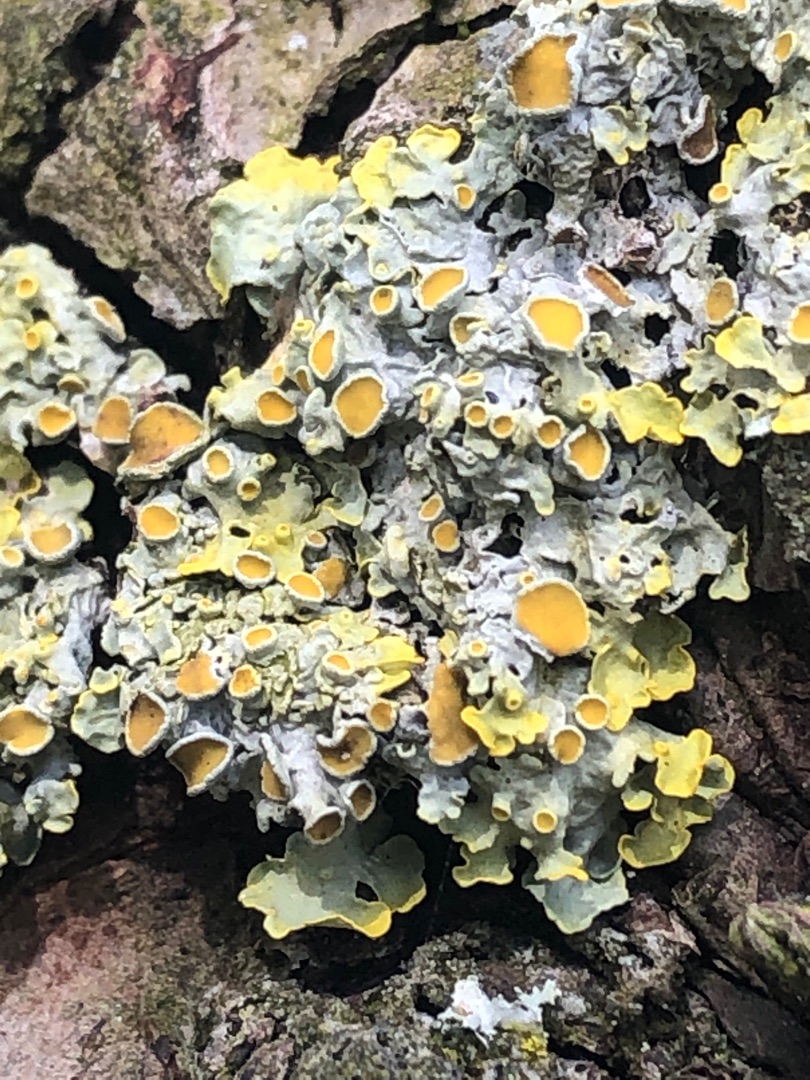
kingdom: Fungi
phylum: Ascomycota
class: Lecanoromycetes
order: Teloschistales
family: Teloschistaceae
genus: Xanthoria
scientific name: Xanthoria parietina
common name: Almindelig væggelav
